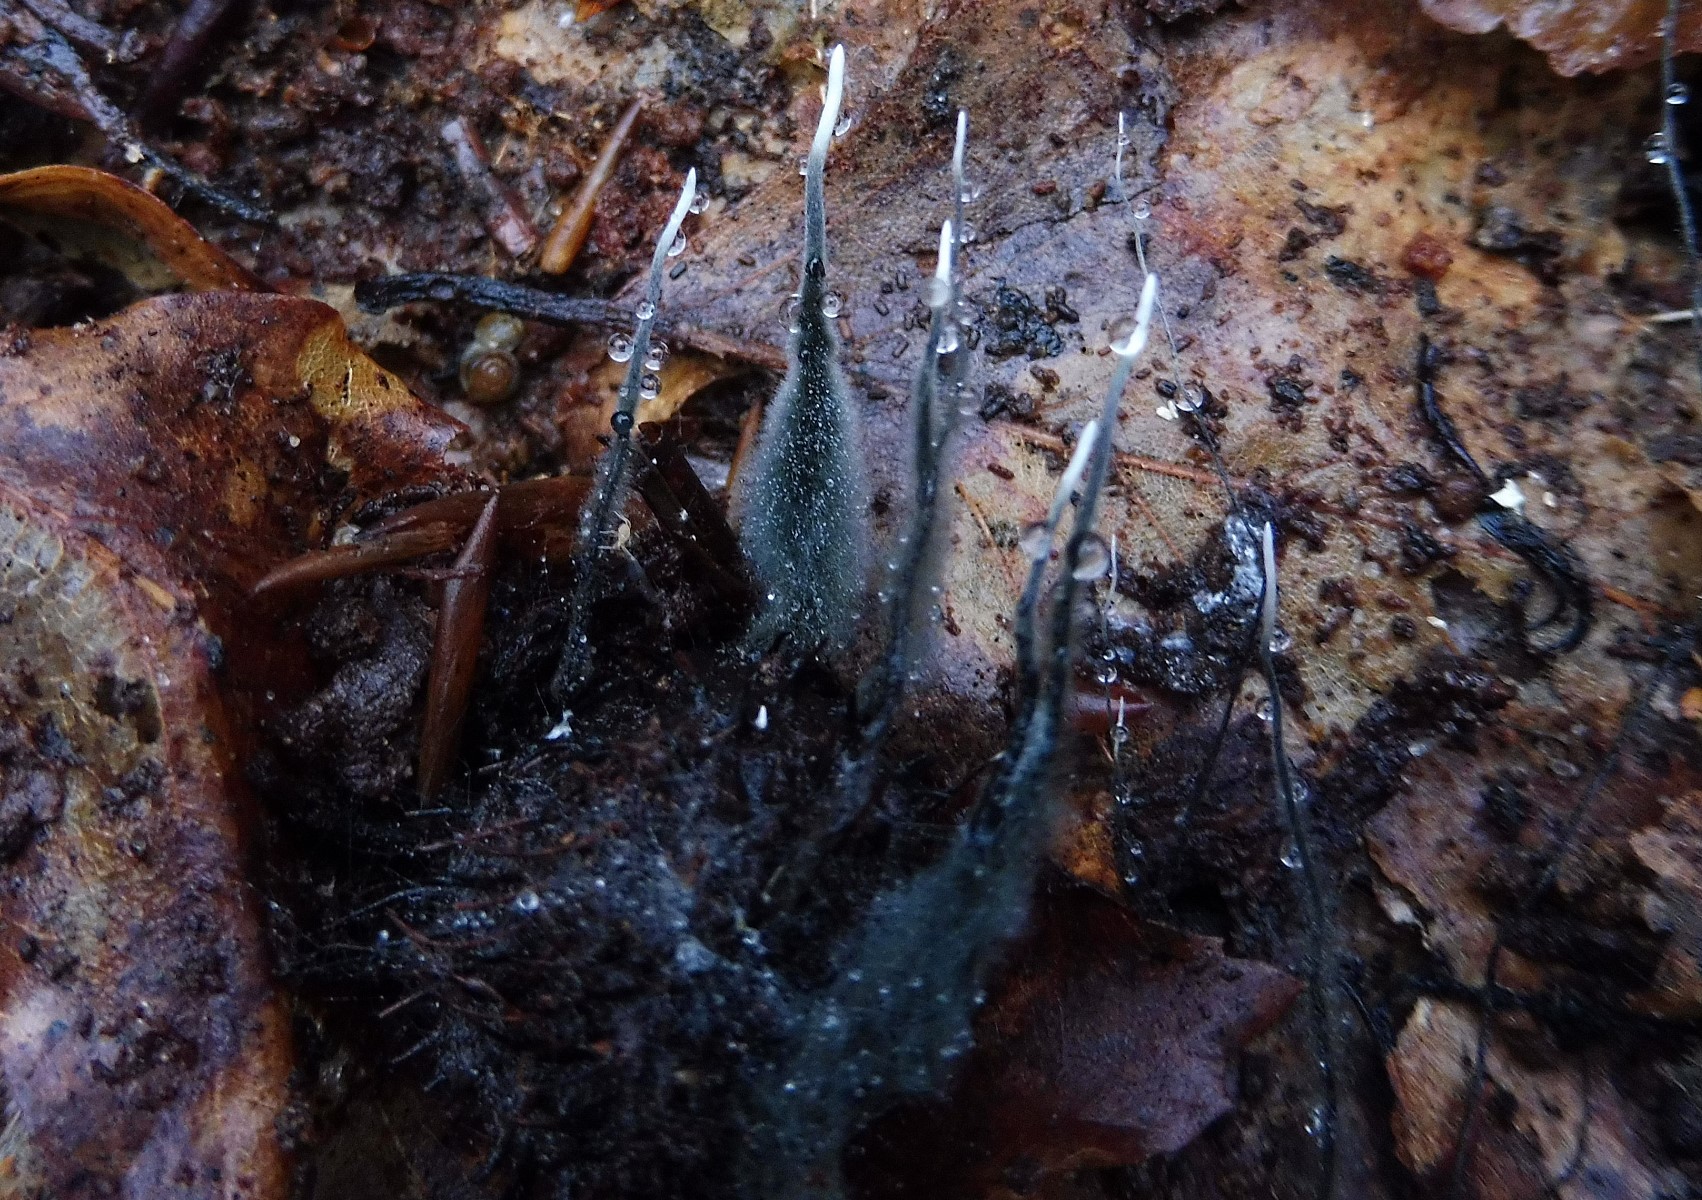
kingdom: Fungi
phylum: Ascomycota
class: Sordariomycetes
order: Xylariales
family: Xylariaceae
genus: Xylaria
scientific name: Xylaria carpophila
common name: bogskål-stødsvamp
